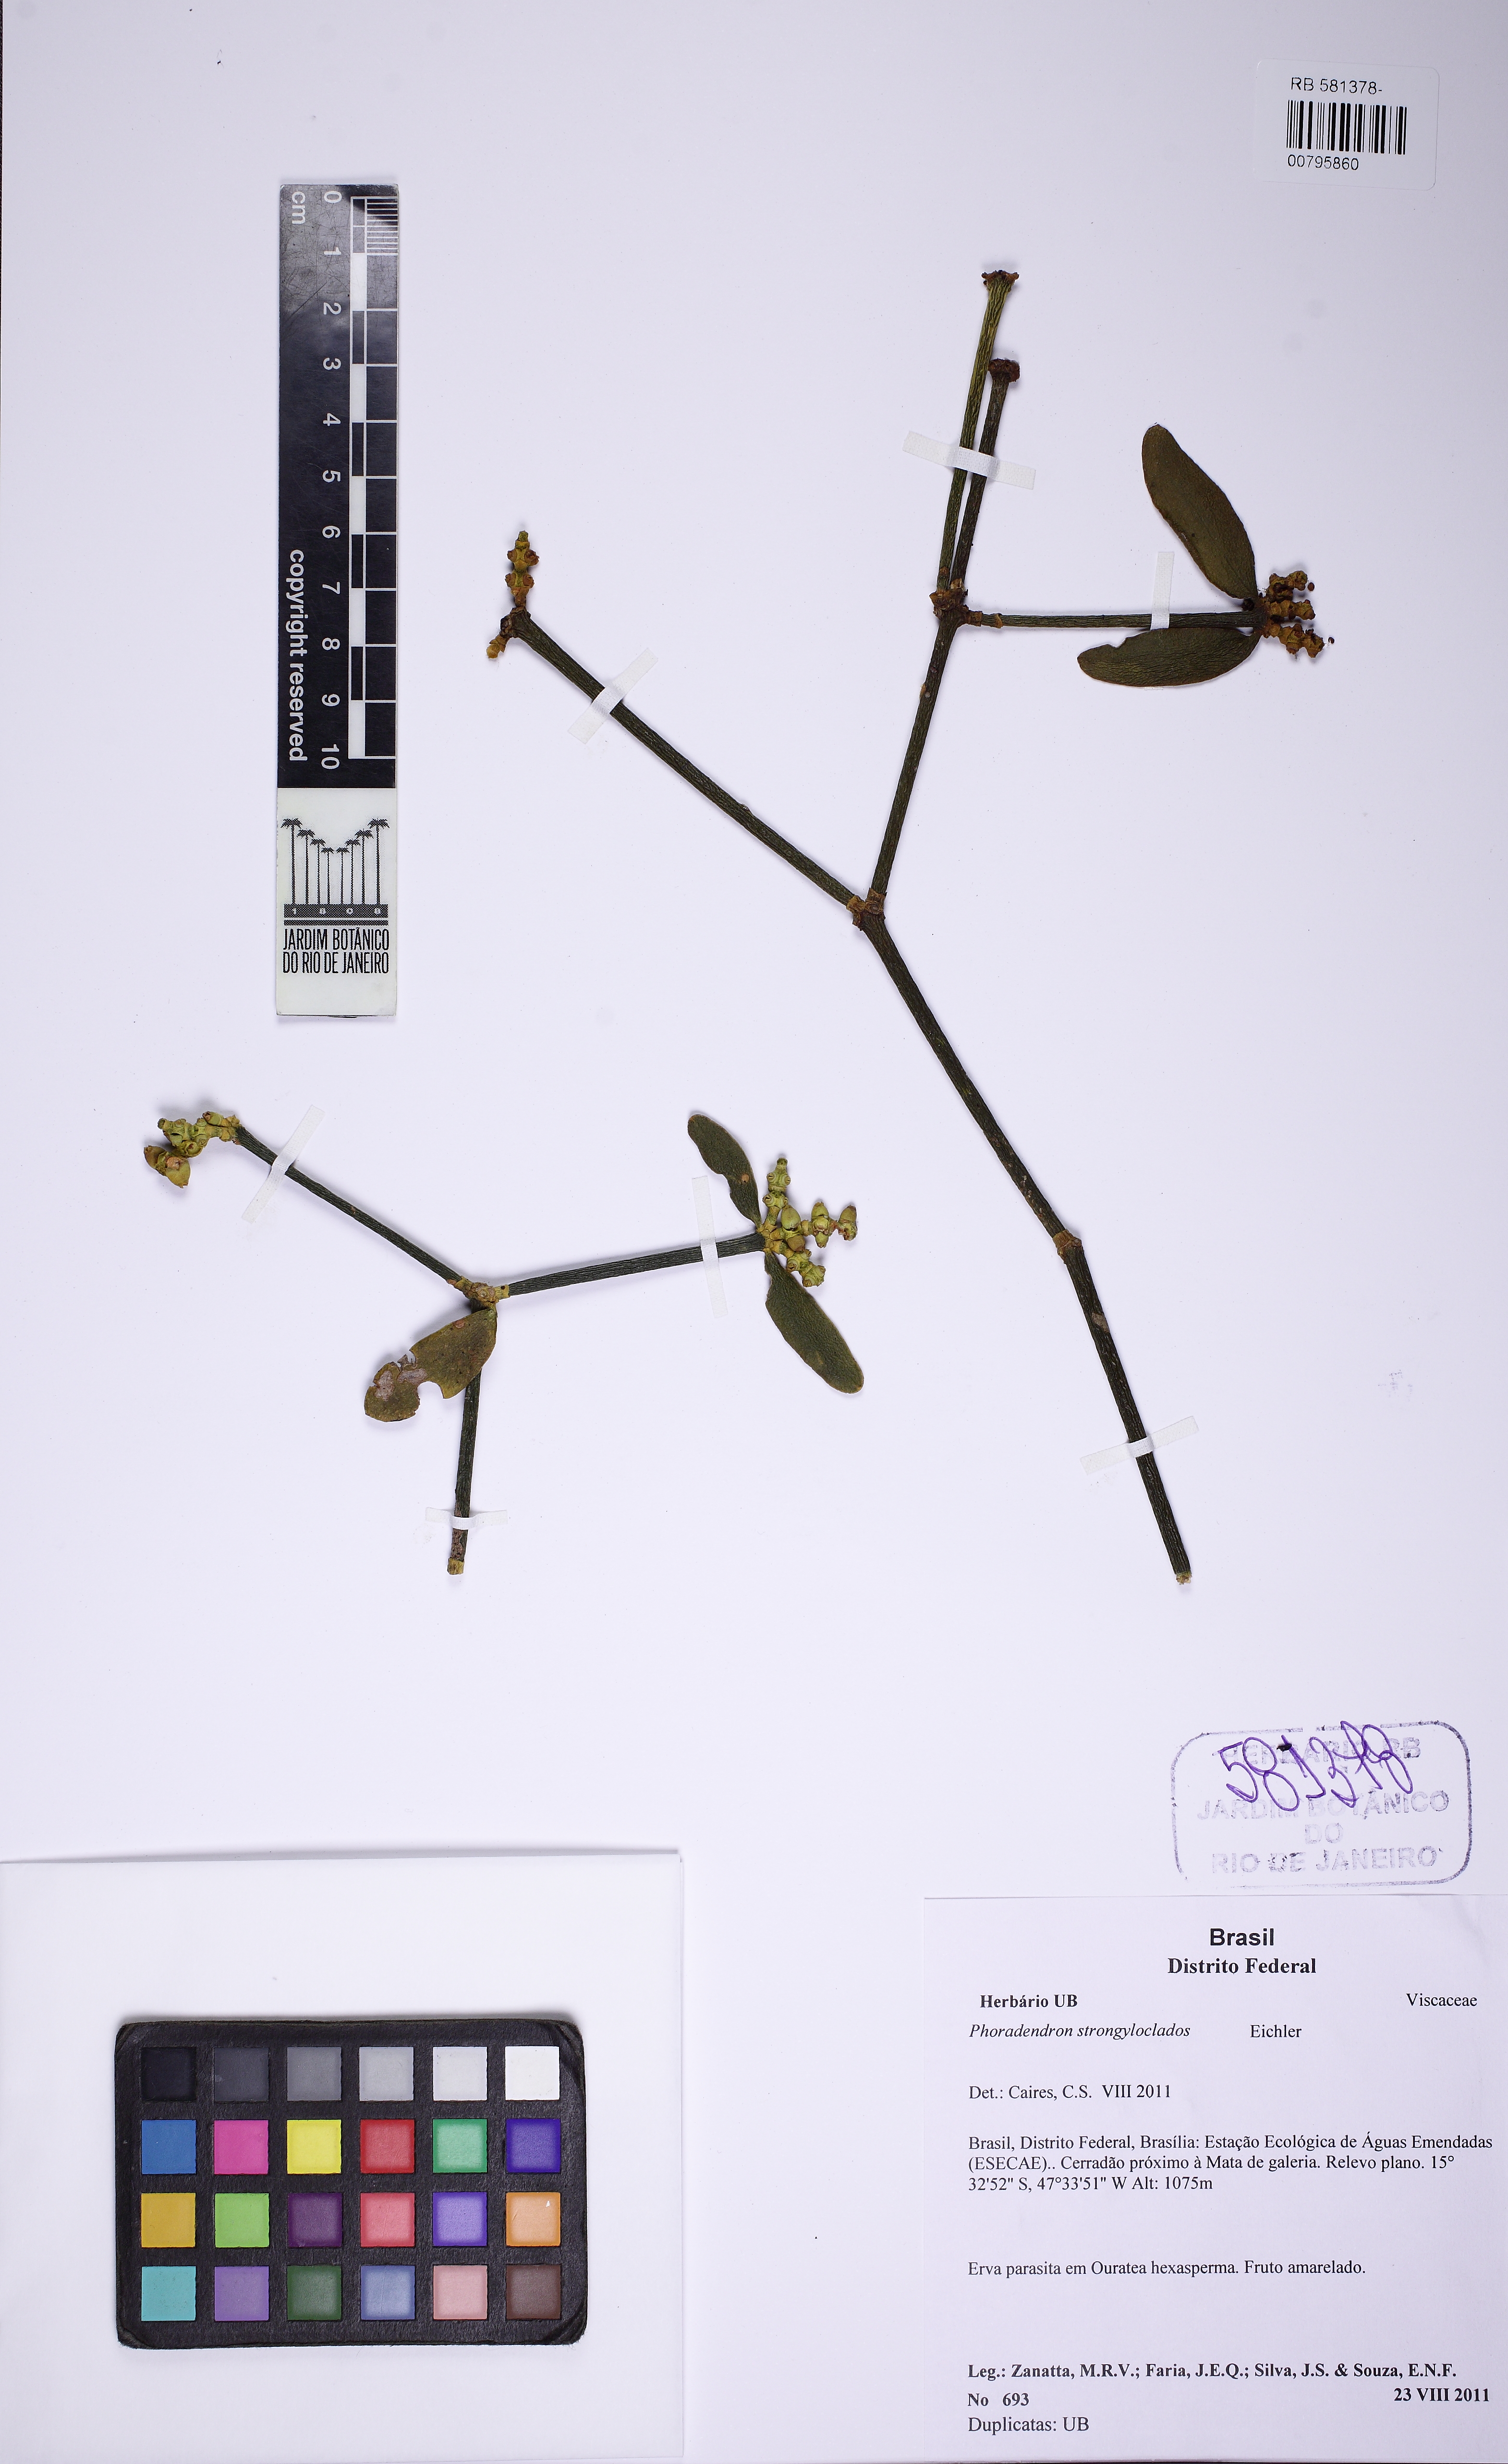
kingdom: Plantae
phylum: Tracheophyta
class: Magnoliopsida
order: Santalales
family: Viscaceae
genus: Phoradendron
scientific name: Phoradendron strongyloclados
